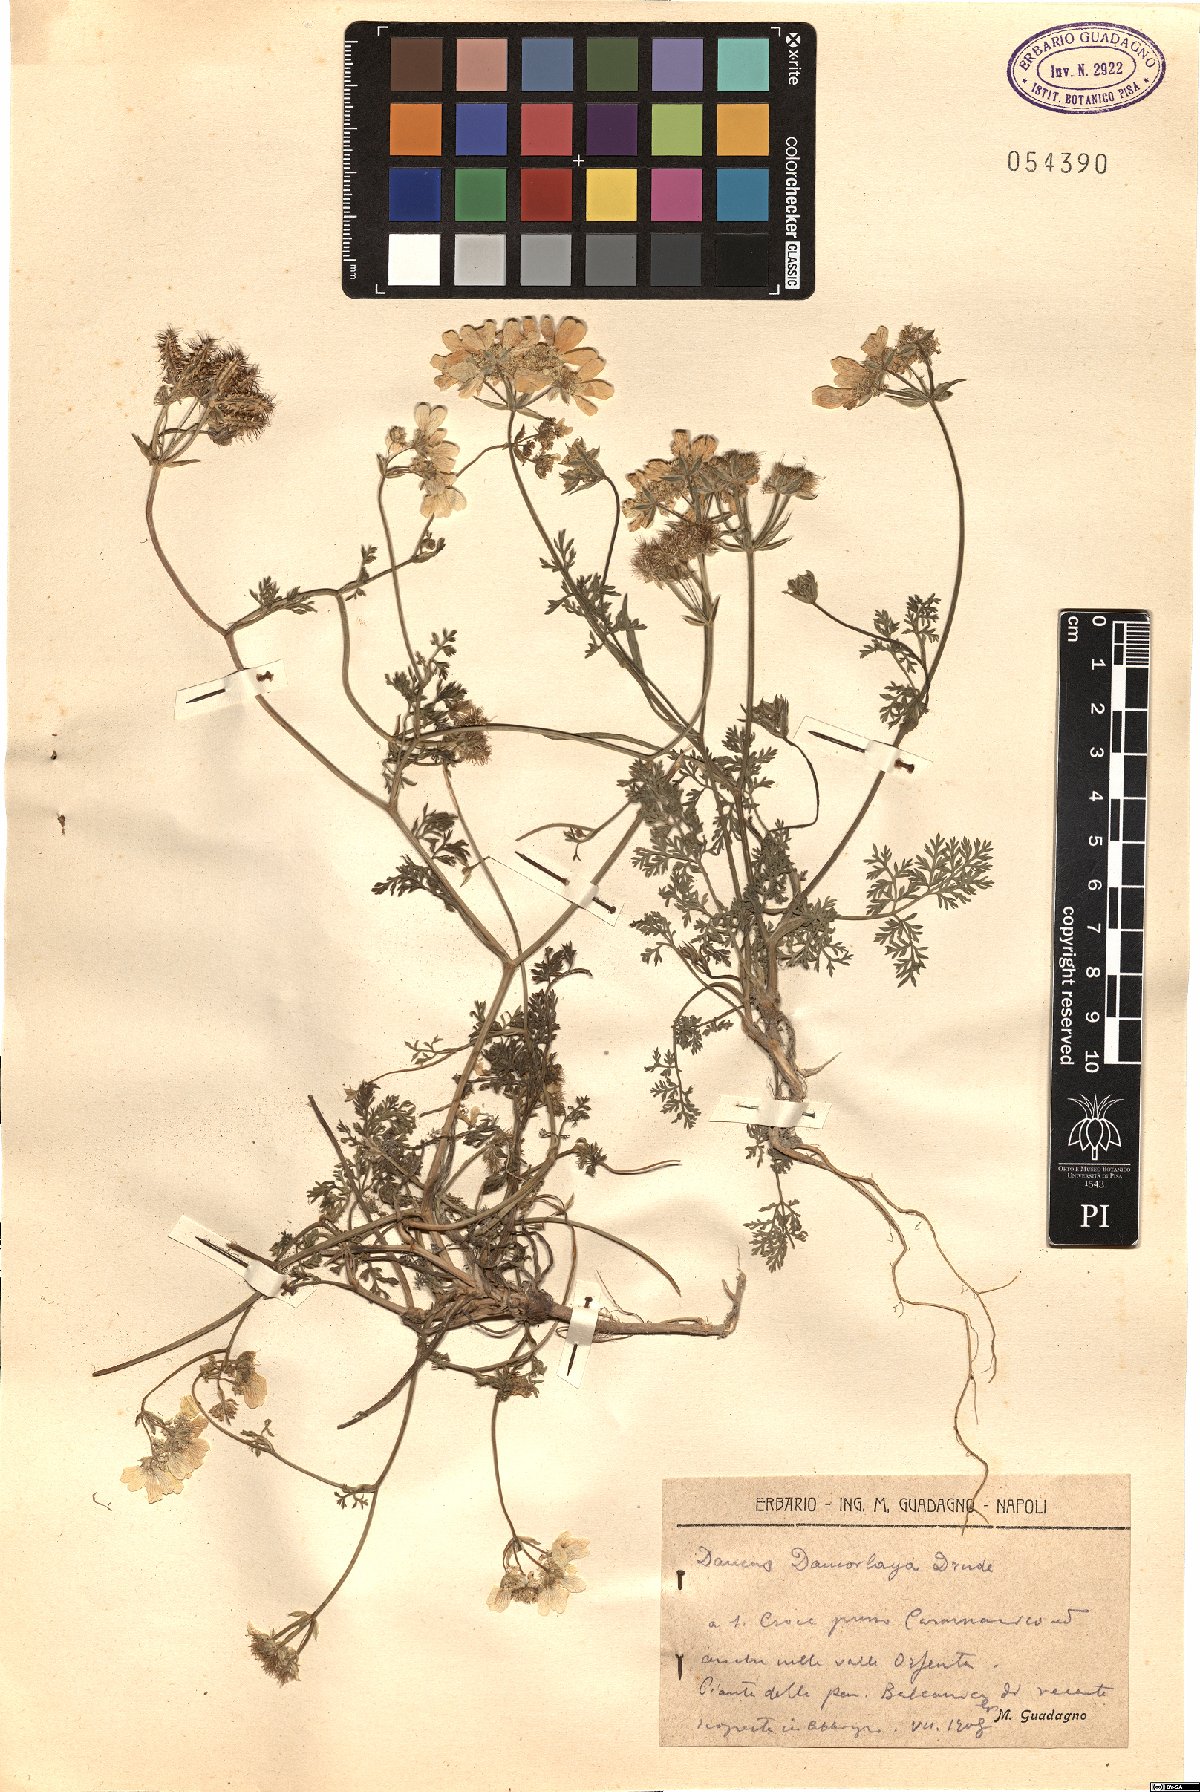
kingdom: Plantae
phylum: Tracheophyta
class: Magnoliopsida
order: Apiales
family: Apiaceae
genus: Orlaya
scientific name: Orlaya daucorlaya
